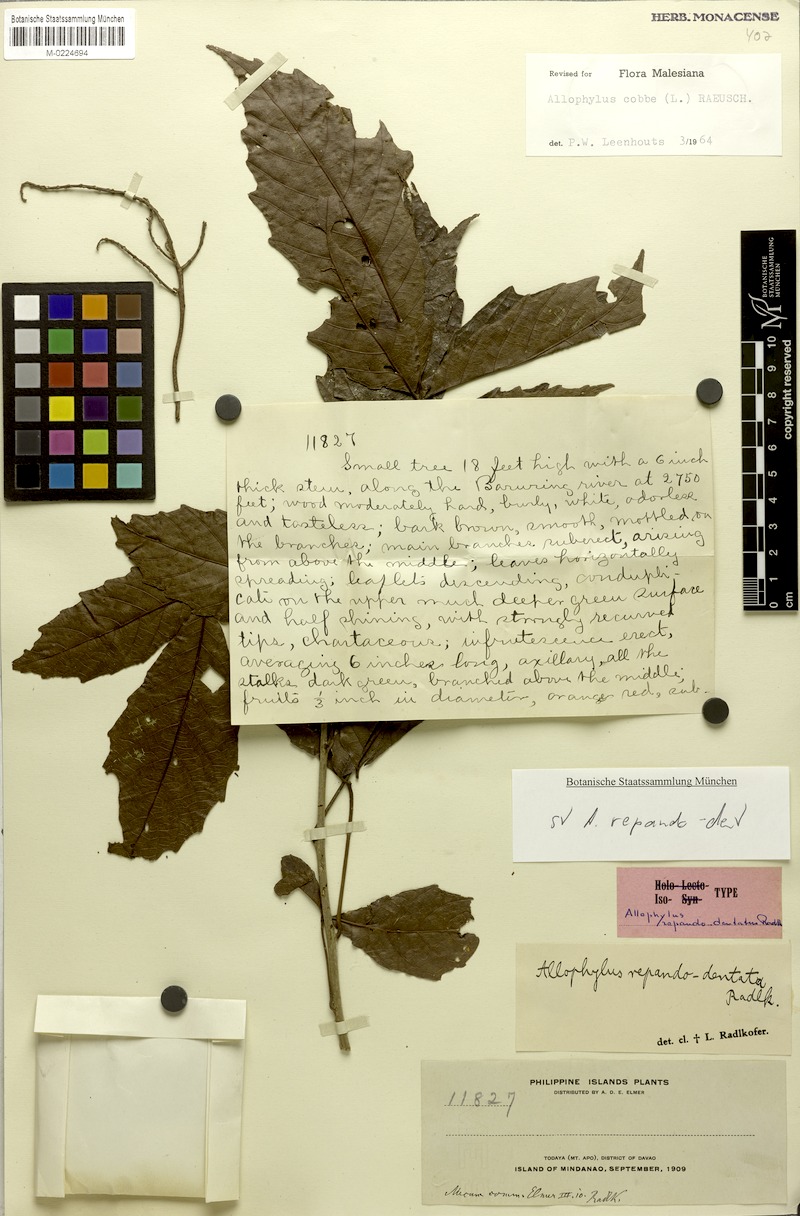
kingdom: Plantae
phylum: Tracheophyta
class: Magnoliopsida
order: Sapindales
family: Sapindaceae
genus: Allophylus
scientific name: Allophylus repandodentatus
